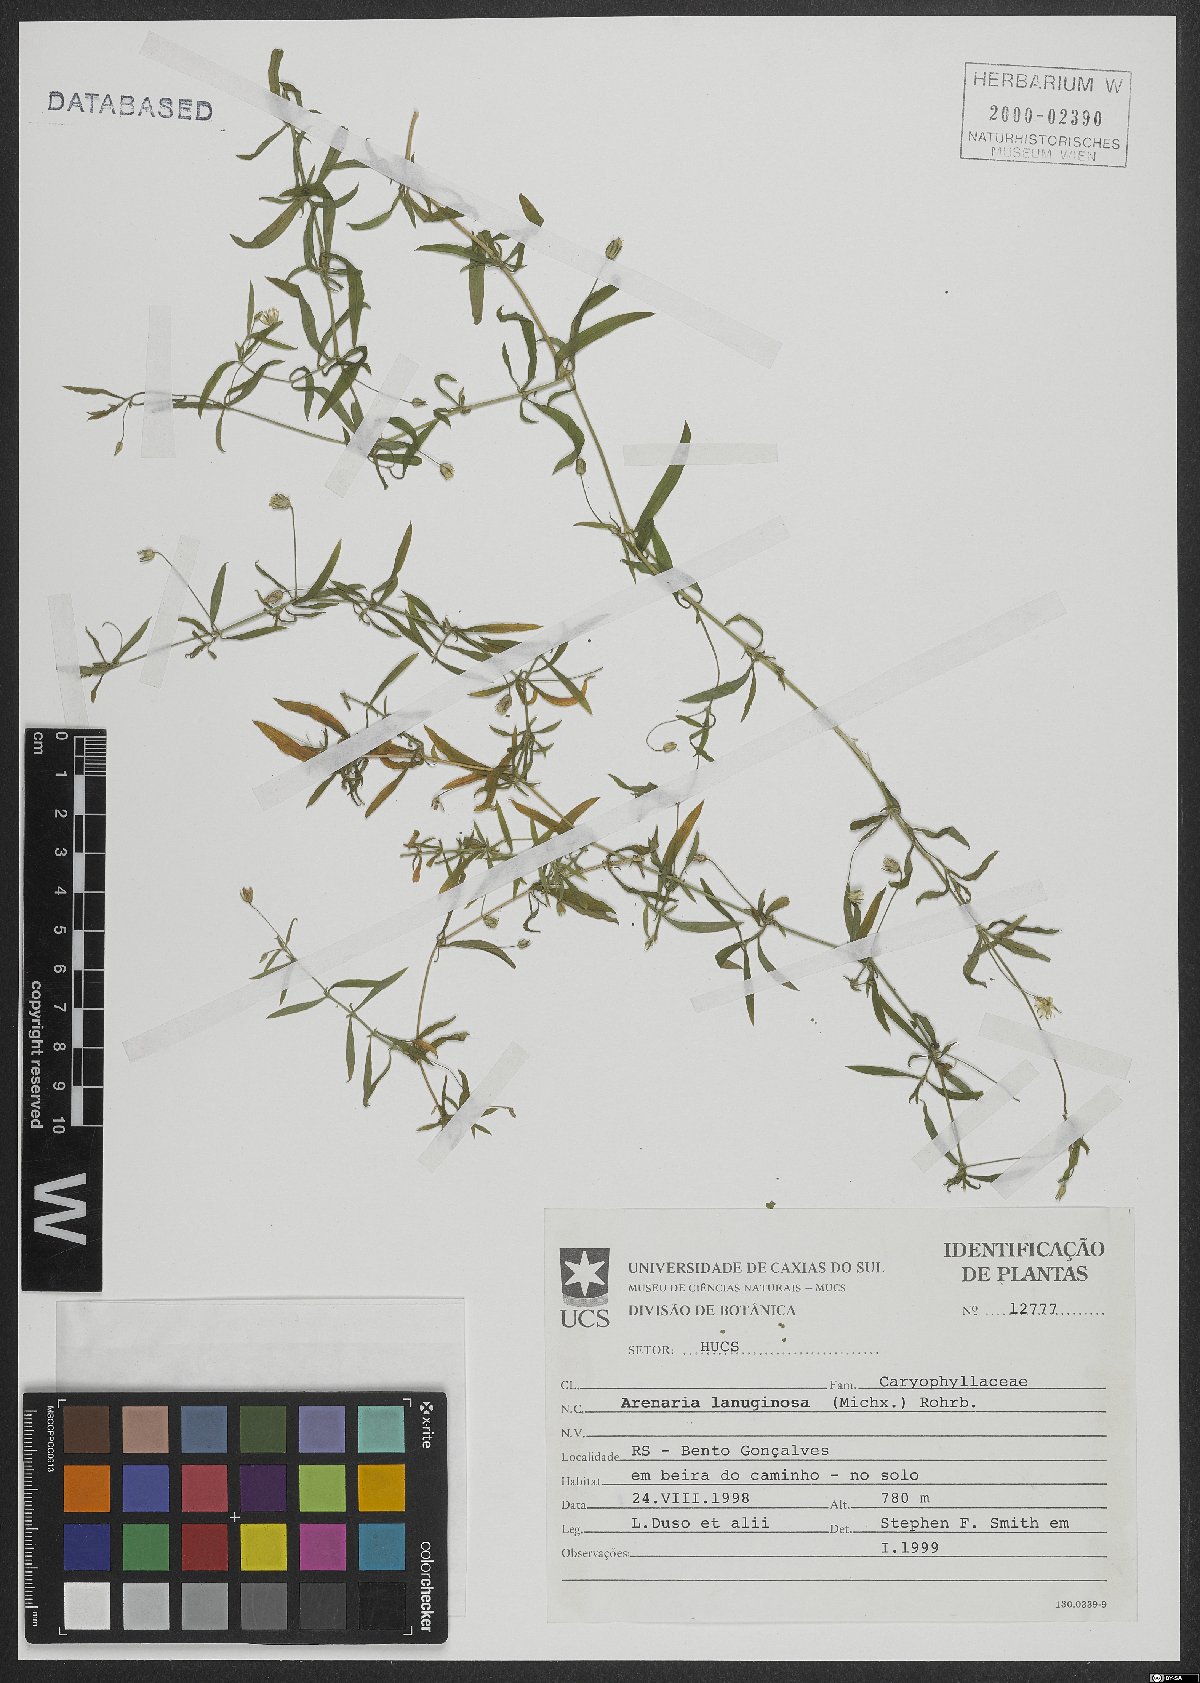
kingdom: Plantae
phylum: Tracheophyta
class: Magnoliopsida
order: Caryophyllales
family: Caryophyllaceae
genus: Arenaria
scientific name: Arenaria lanuginosa
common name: Spread sandwort
